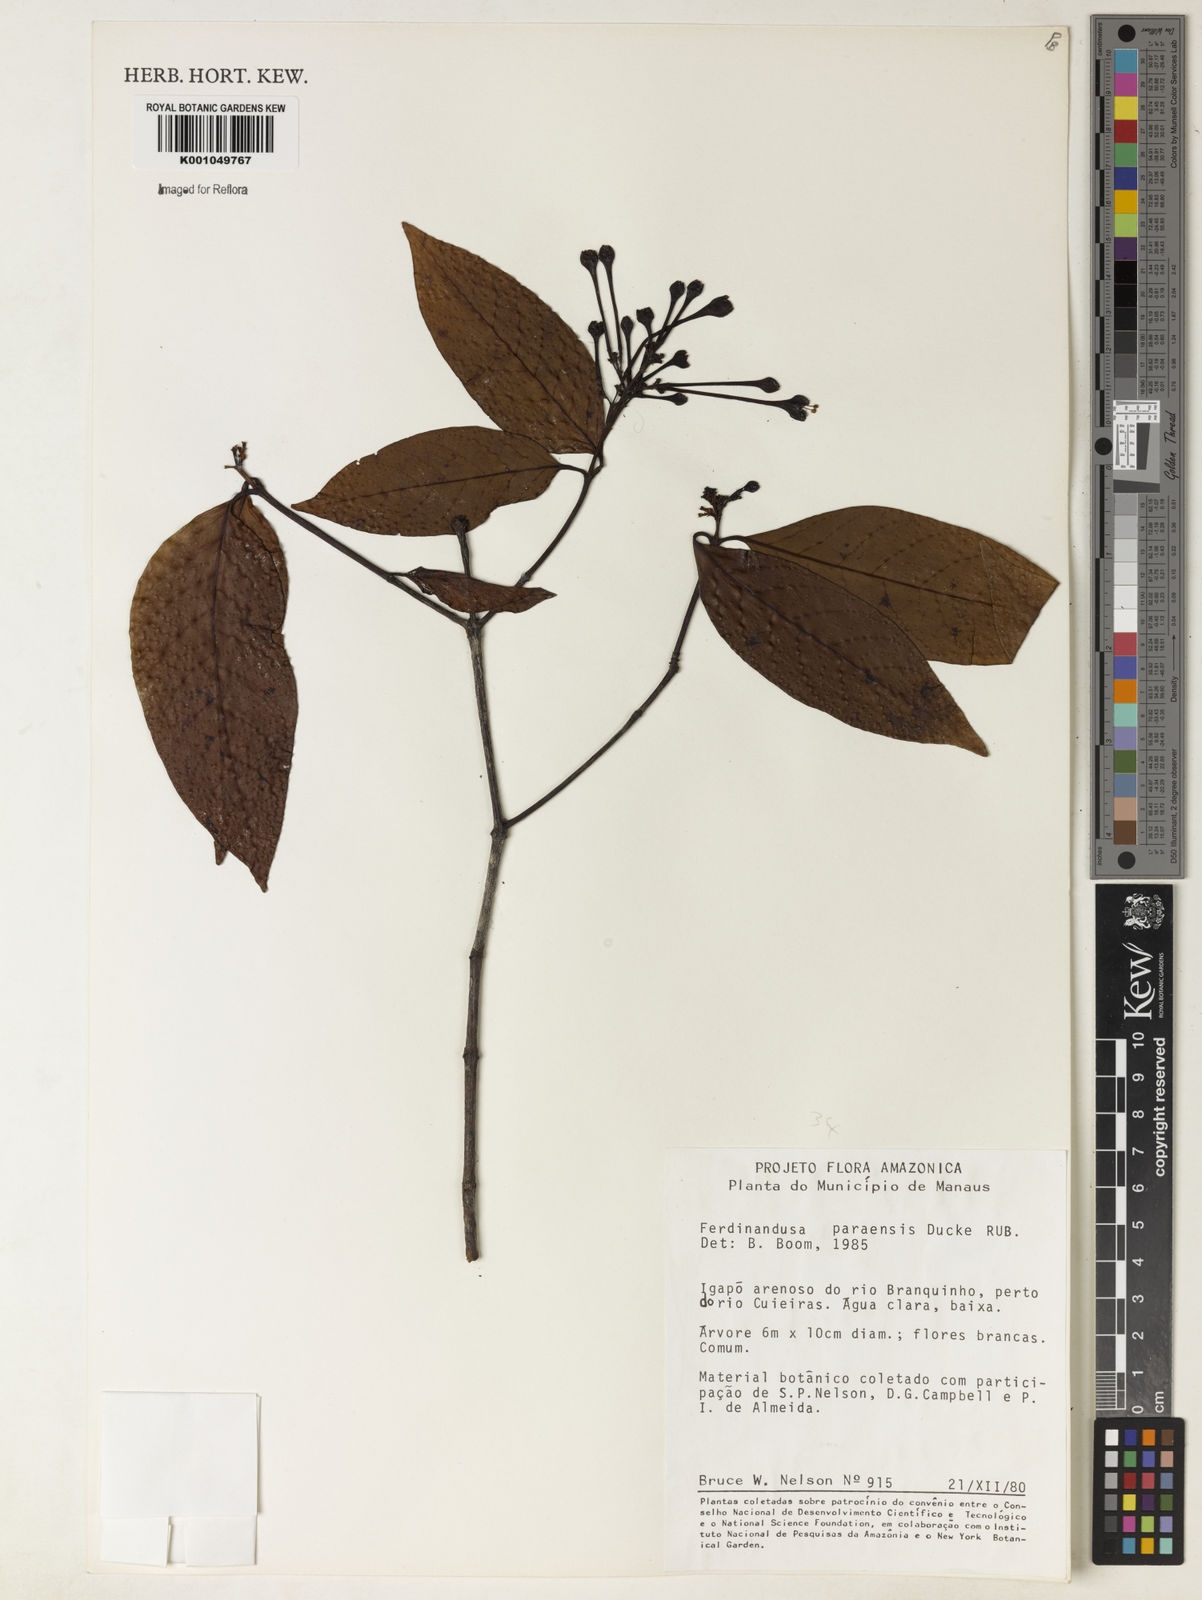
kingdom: Plantae
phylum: Tracheophyta
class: Magnoliopsida
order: Gentianales
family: Rubiaceae
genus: Ferdinandusa
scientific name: Ferdinandusa paraensis
